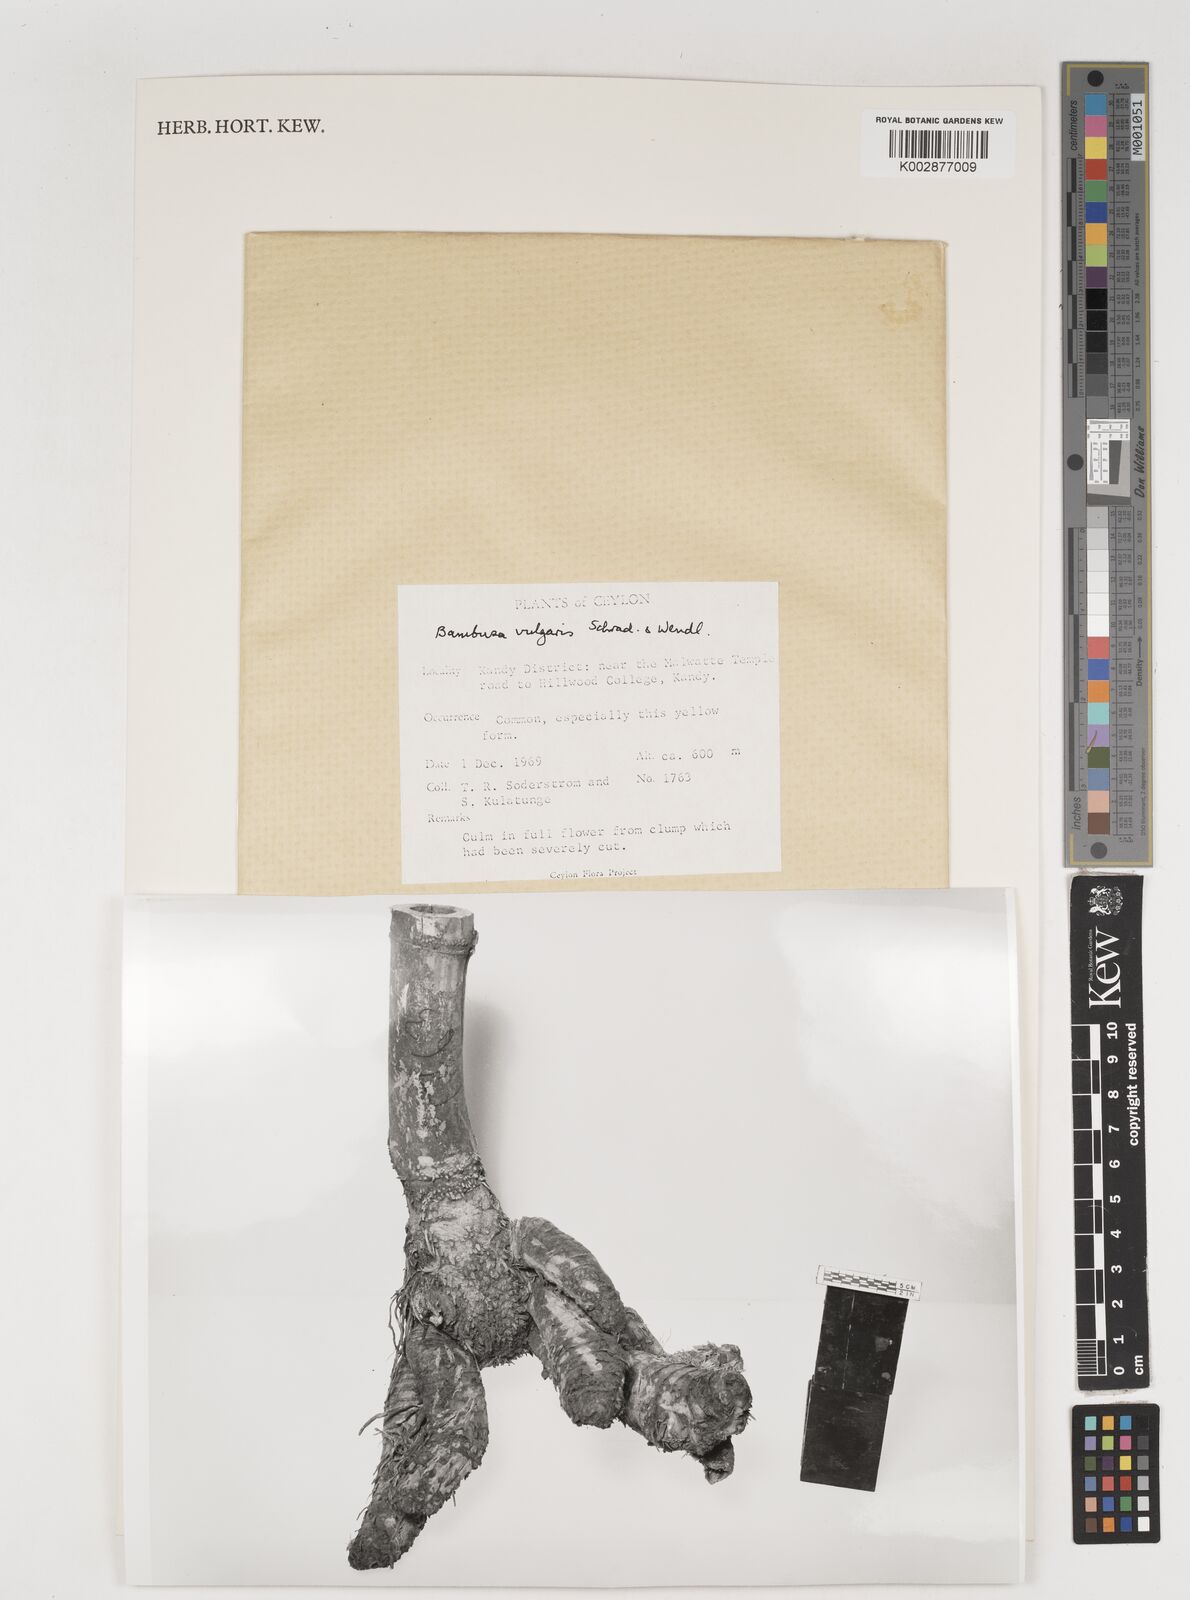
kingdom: Plantae
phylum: Tracheophyta
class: Liliopsida
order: Poales
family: Poaceae
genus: Bambusa
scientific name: Bambusa vulgaris
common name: Common bamboo
